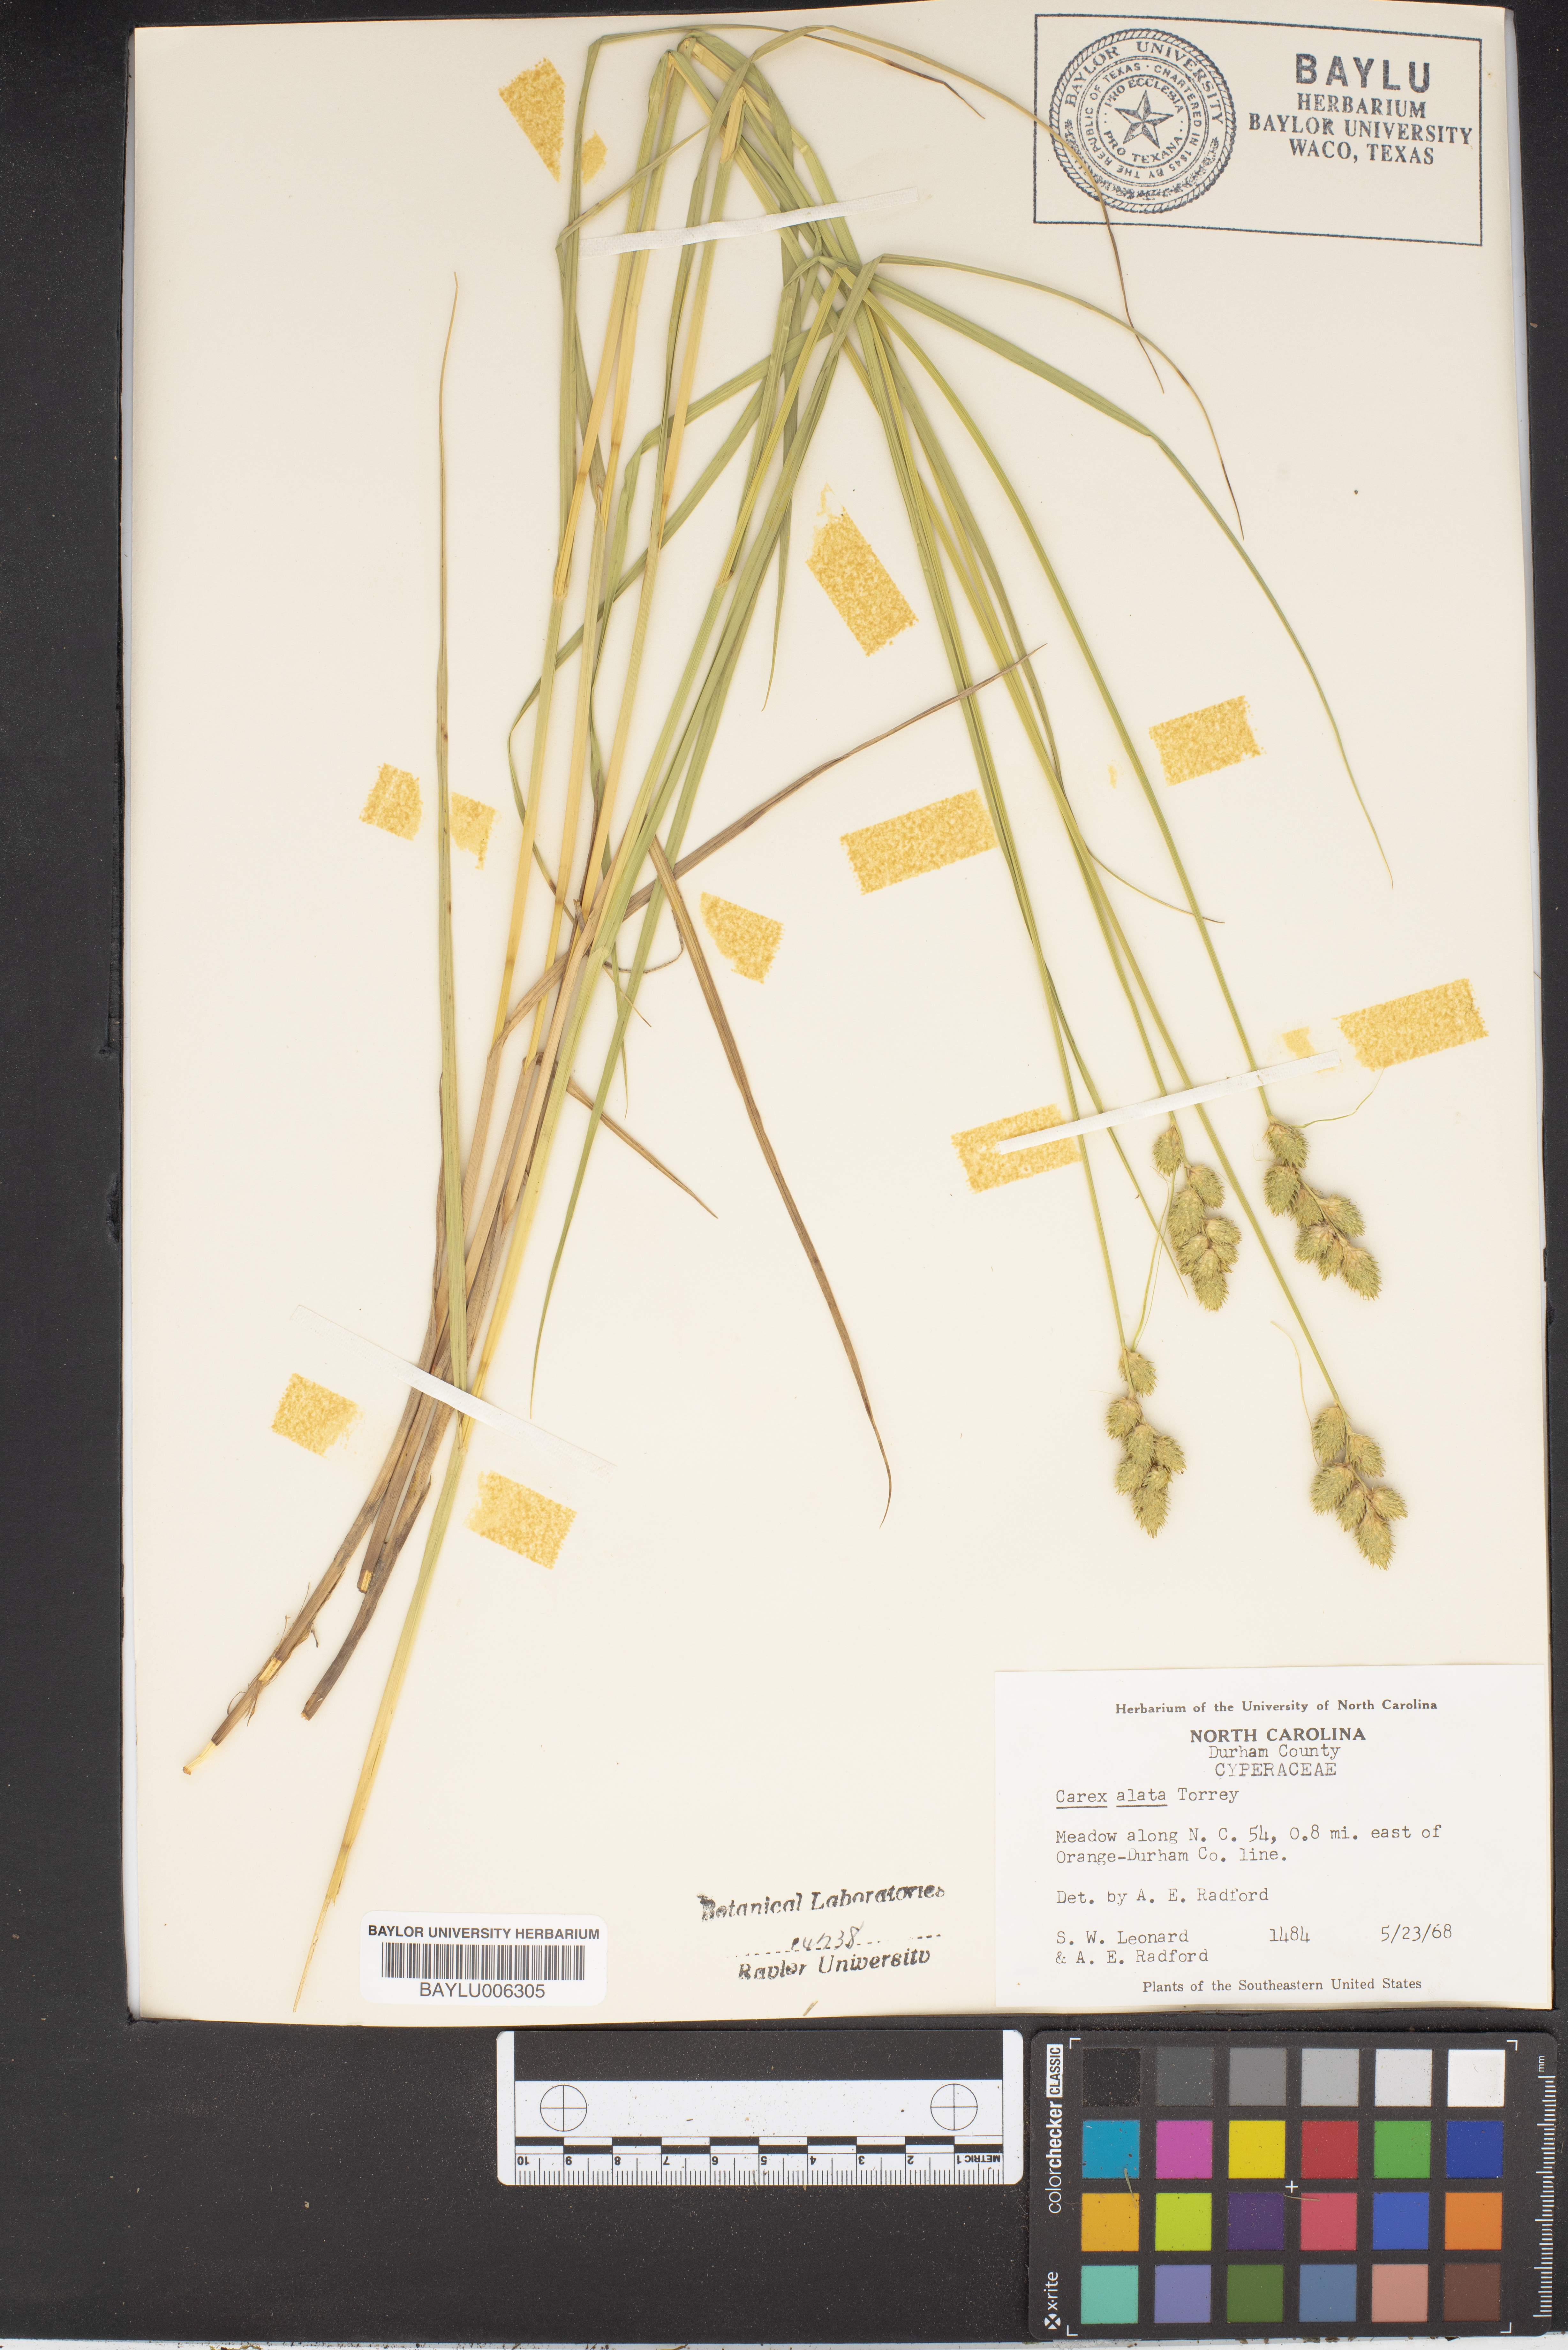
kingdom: Plantae
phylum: Tracheophyta
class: Liliopsida
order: Poales
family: Cyperaceae
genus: Carex
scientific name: Carex alata
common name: Broad-winged sedge
